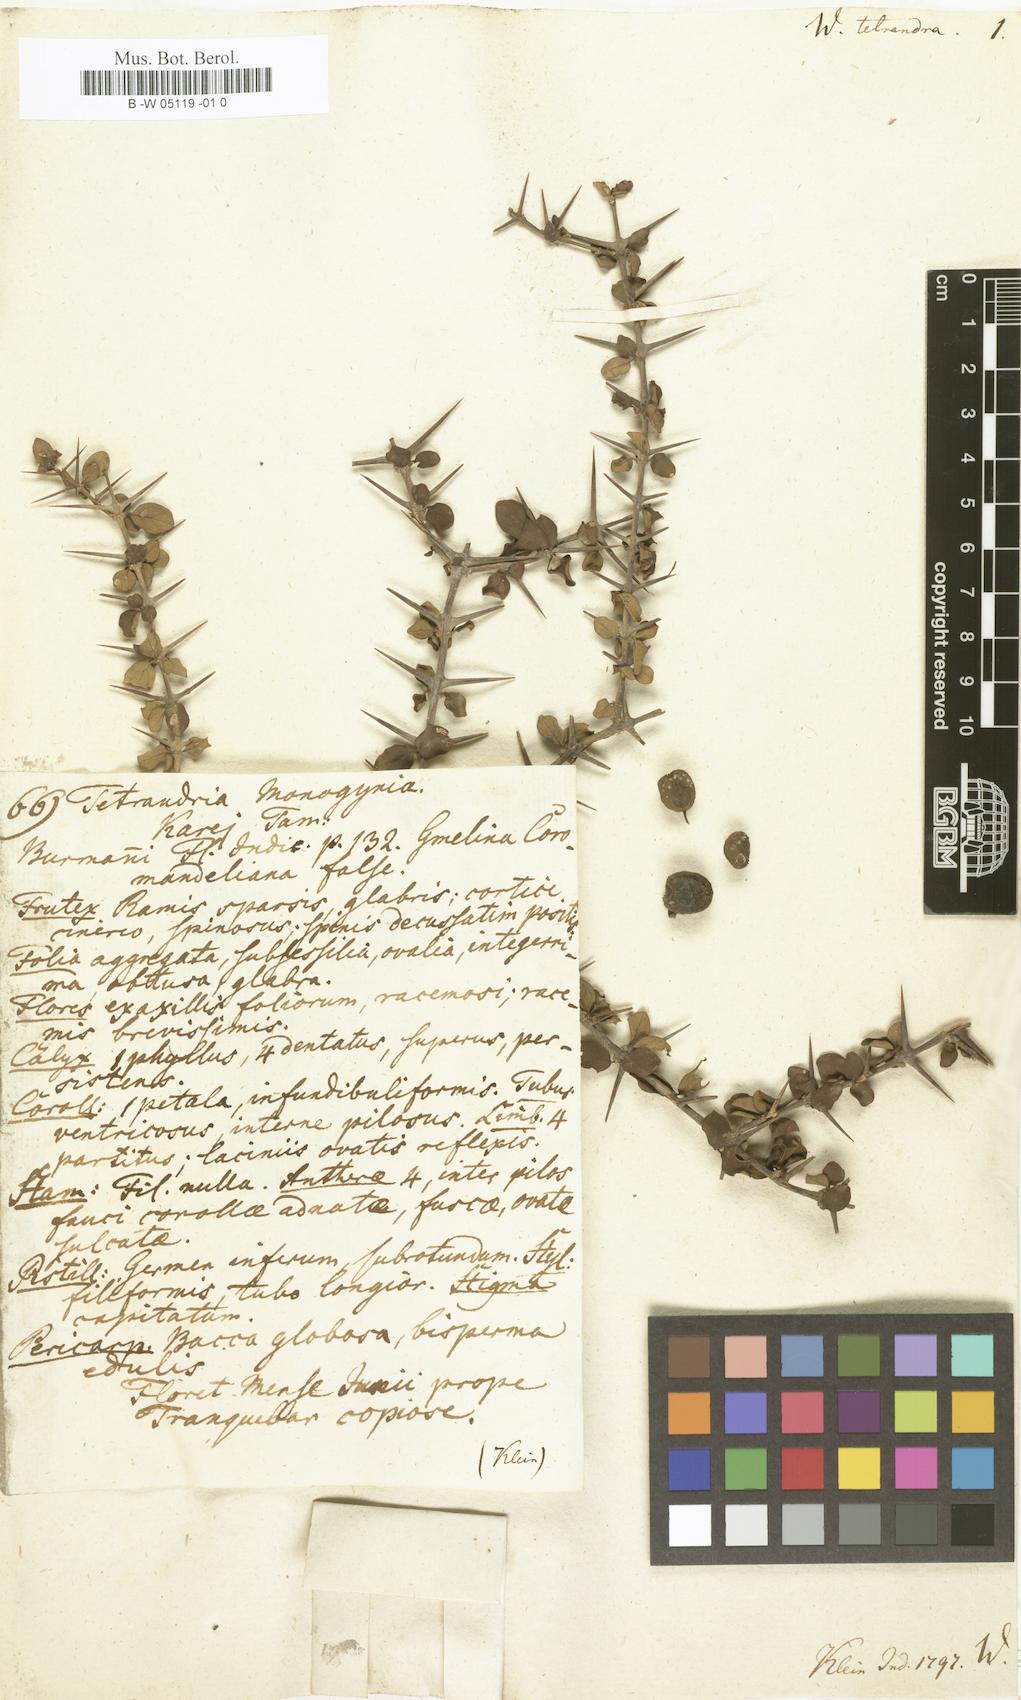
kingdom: Plantae
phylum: Tracheophyta
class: Magnoliopsida
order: Gentianales
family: Rubiaceae
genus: Canthium
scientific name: Canthium coromandelicum
